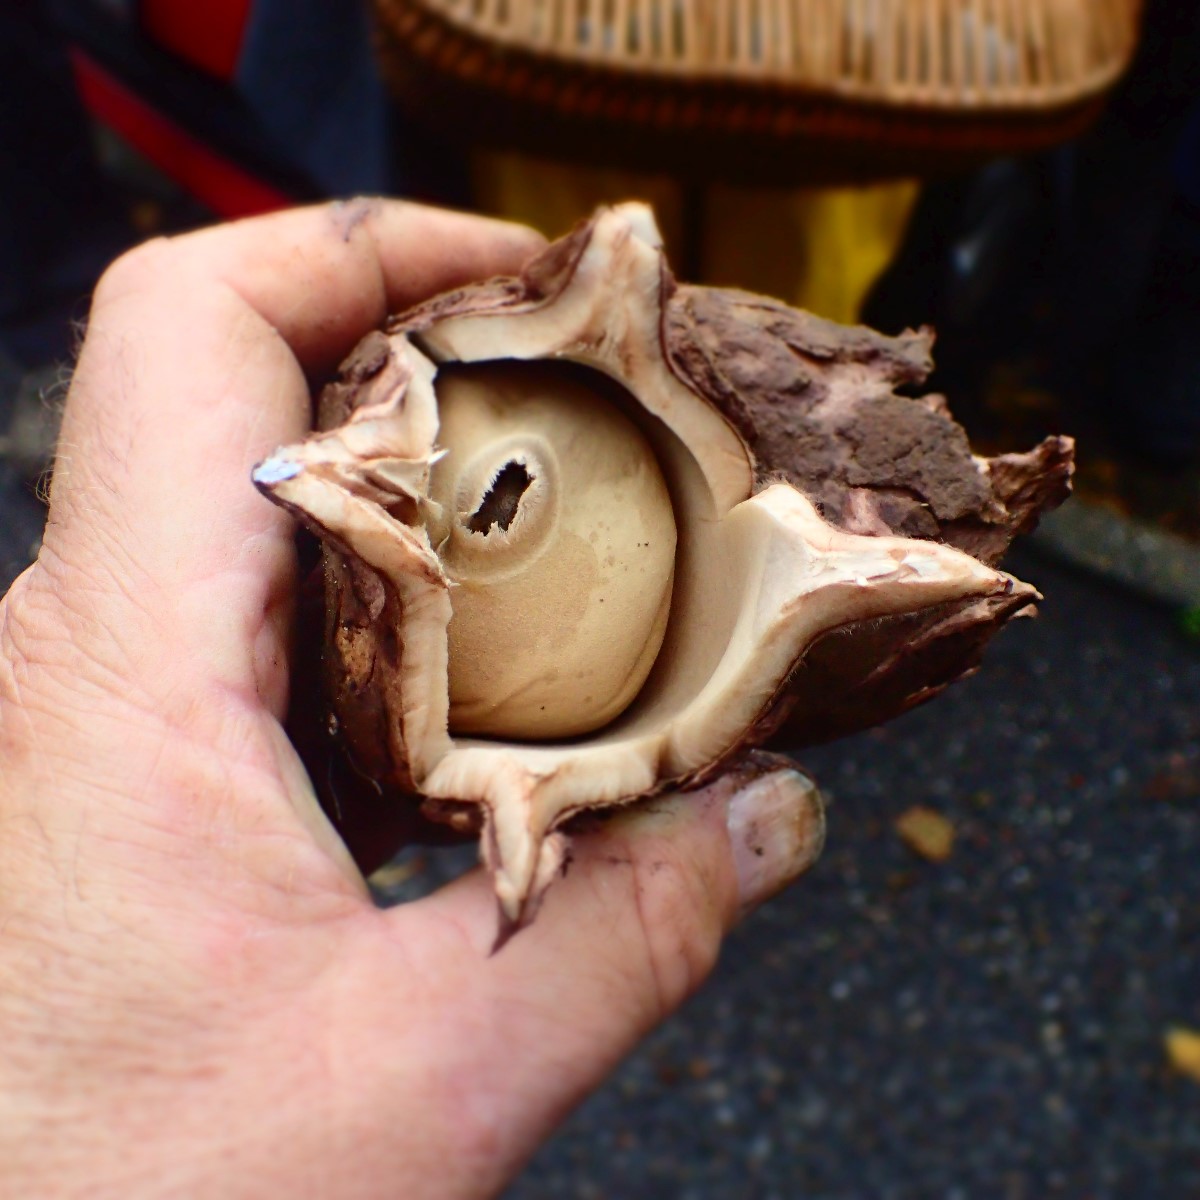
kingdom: Fungi
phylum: Basidiomycota
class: Agaricomycetes
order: Geastrales
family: Geastraceae
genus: Geastrum
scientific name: Geastrum michelianum
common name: kødet stjernebold
